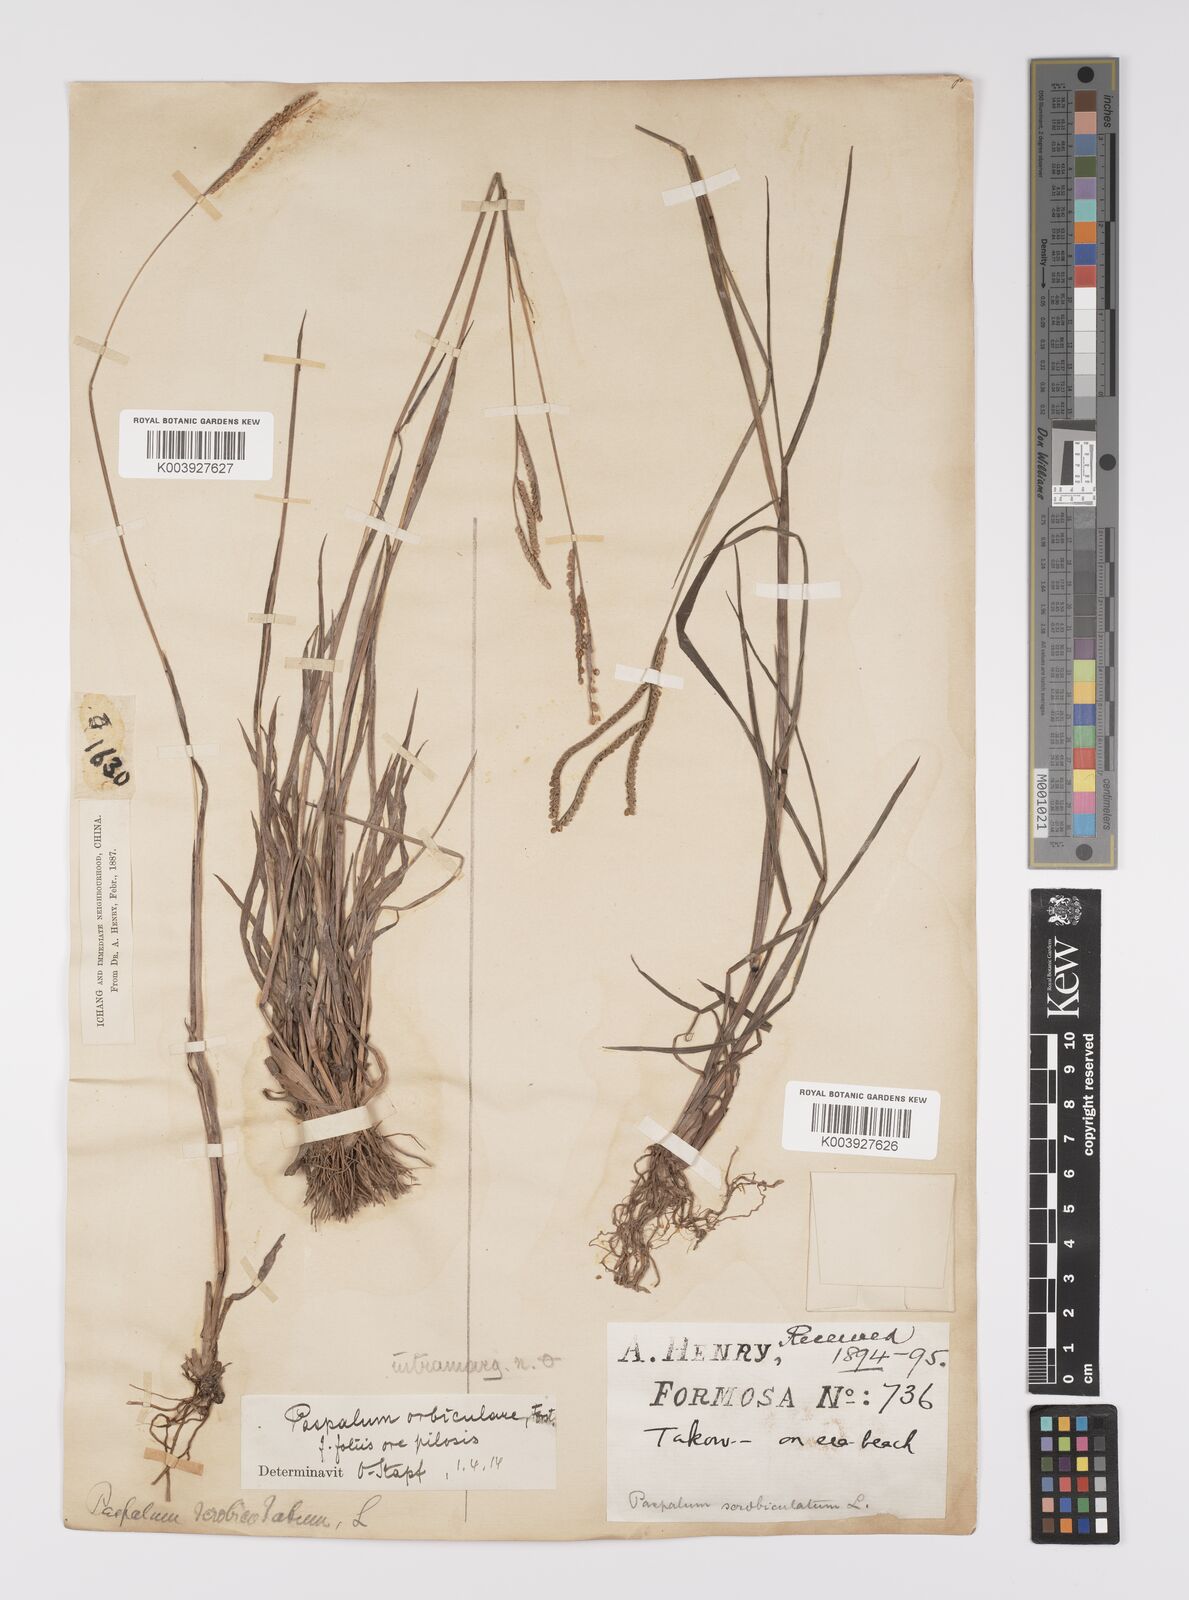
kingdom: Plantae
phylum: Tracheophyta
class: Liliopsida
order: Poales
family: Poaceae
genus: Paspalum
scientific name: Paspalum orbiculare
